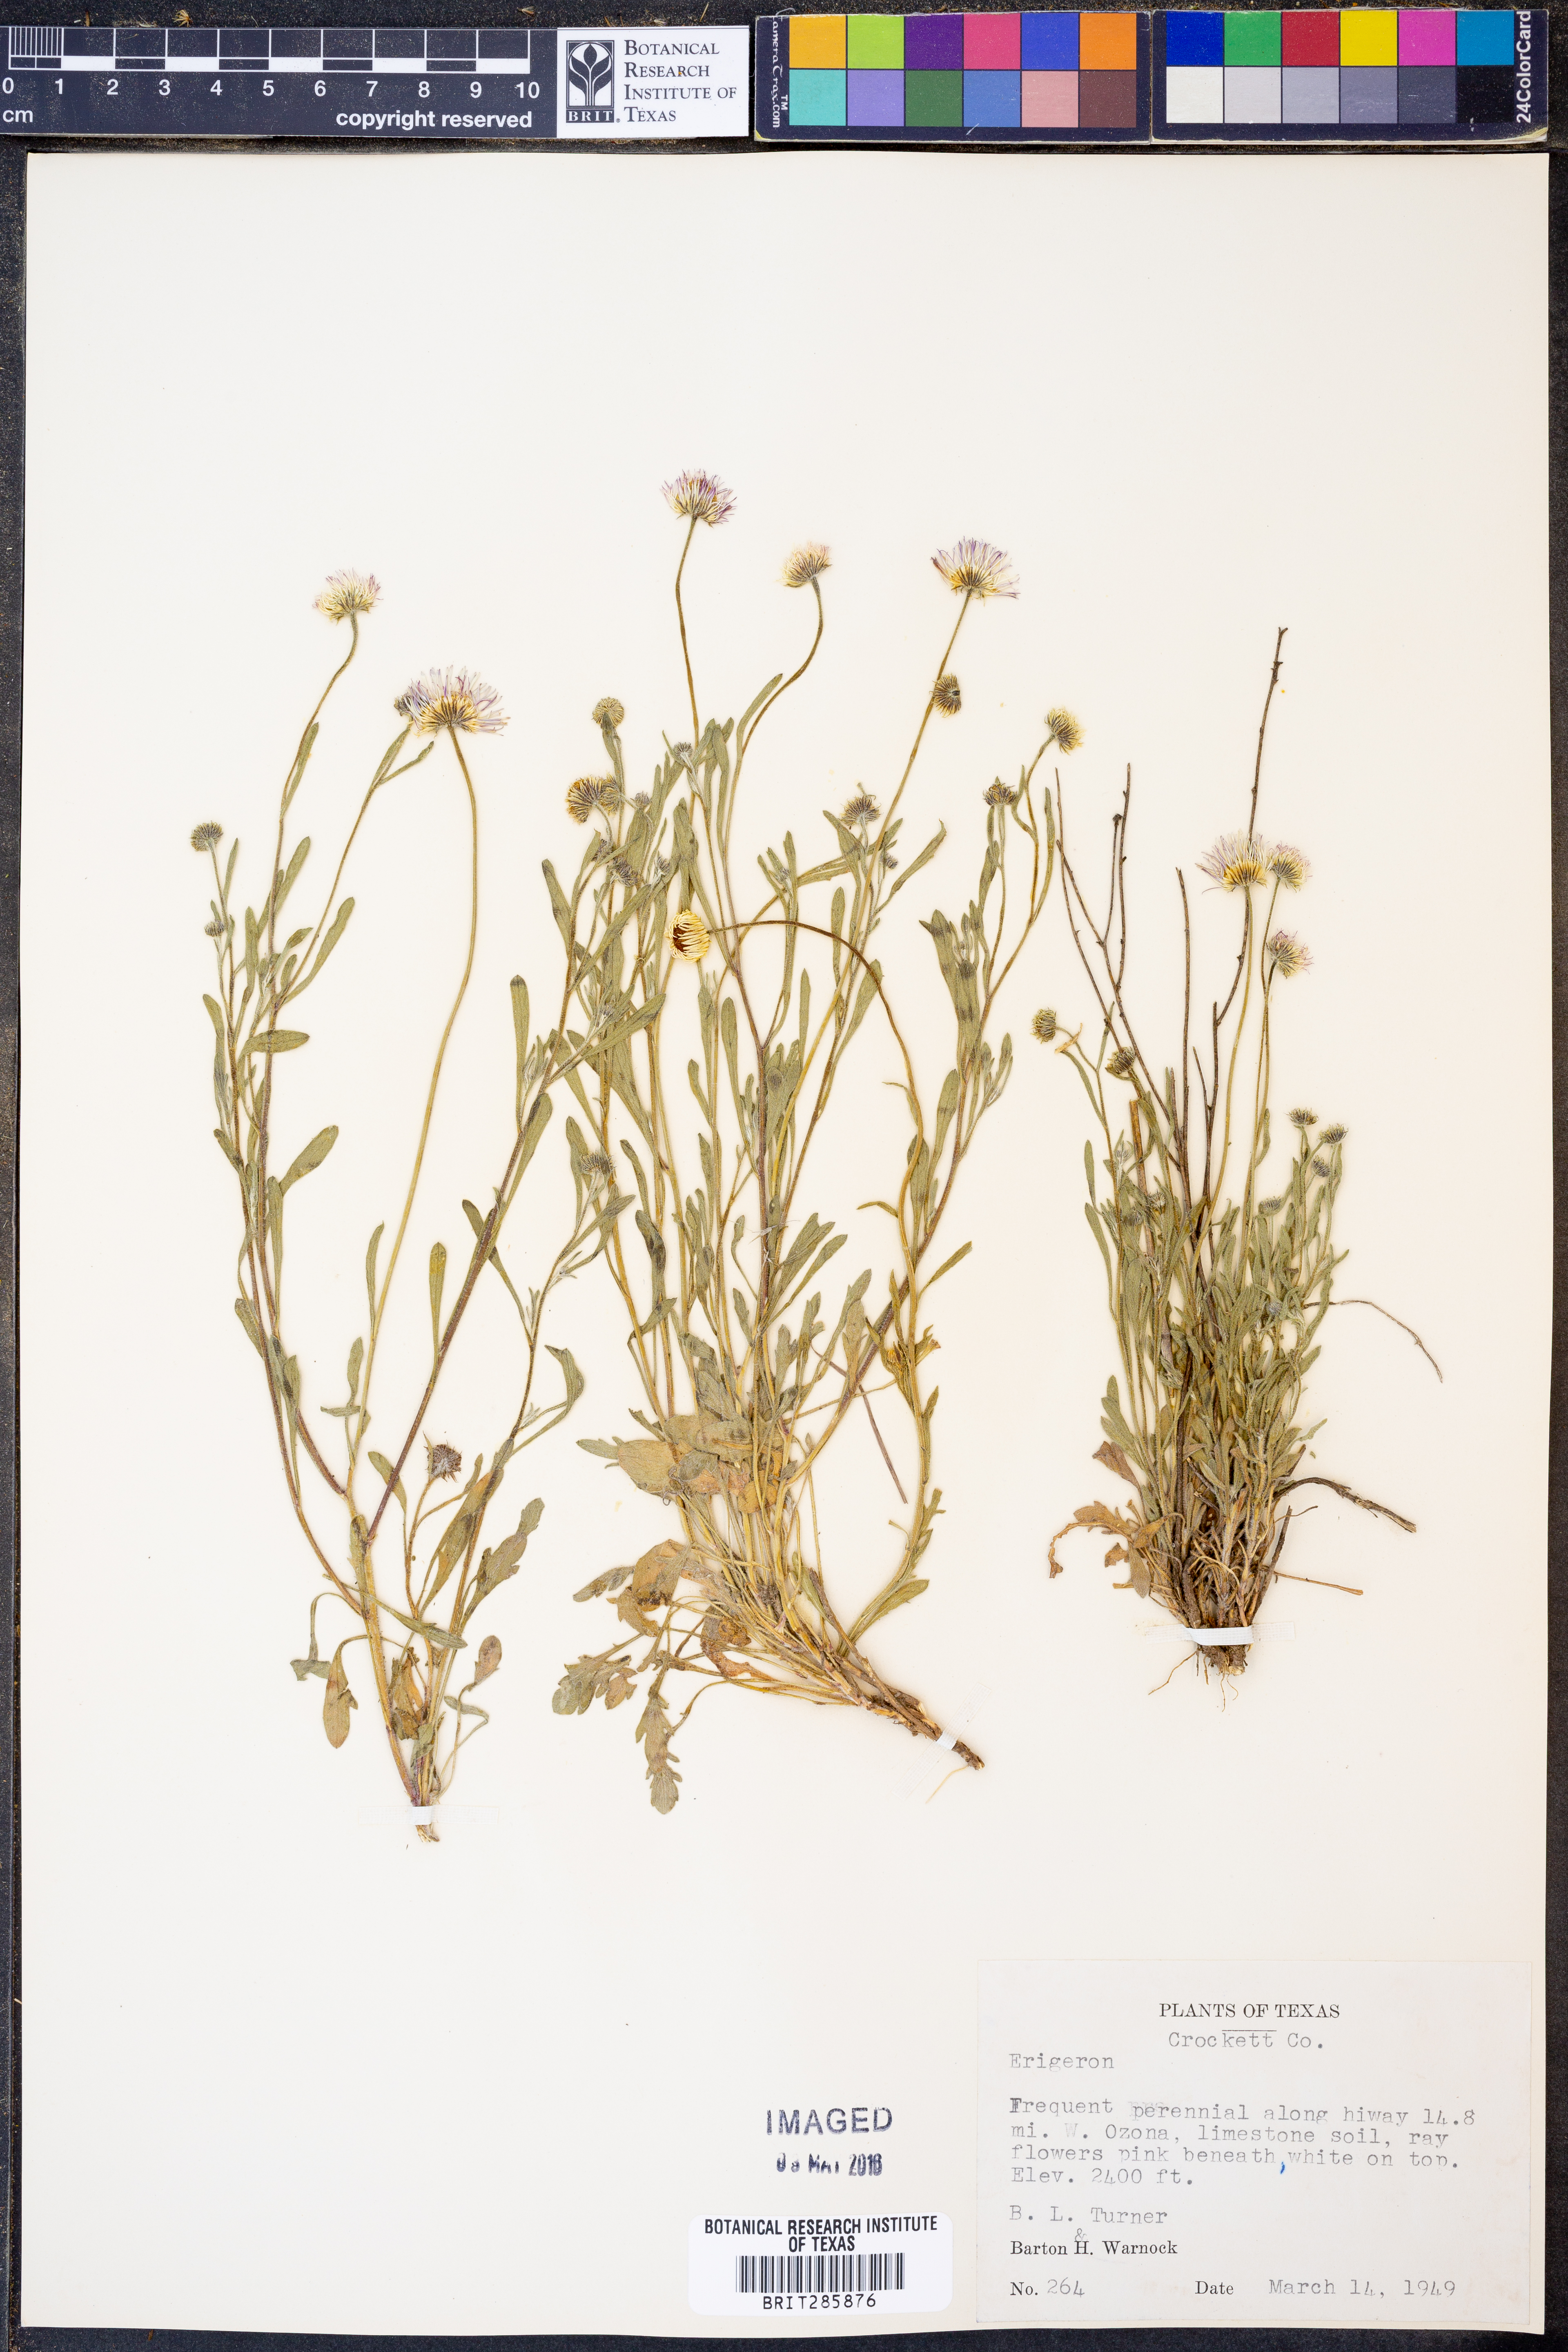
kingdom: Plantae
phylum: Tracheophyta
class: Magnoliopsida
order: Asterales
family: Asteraceae
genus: Erigeron
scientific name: Erigeron
